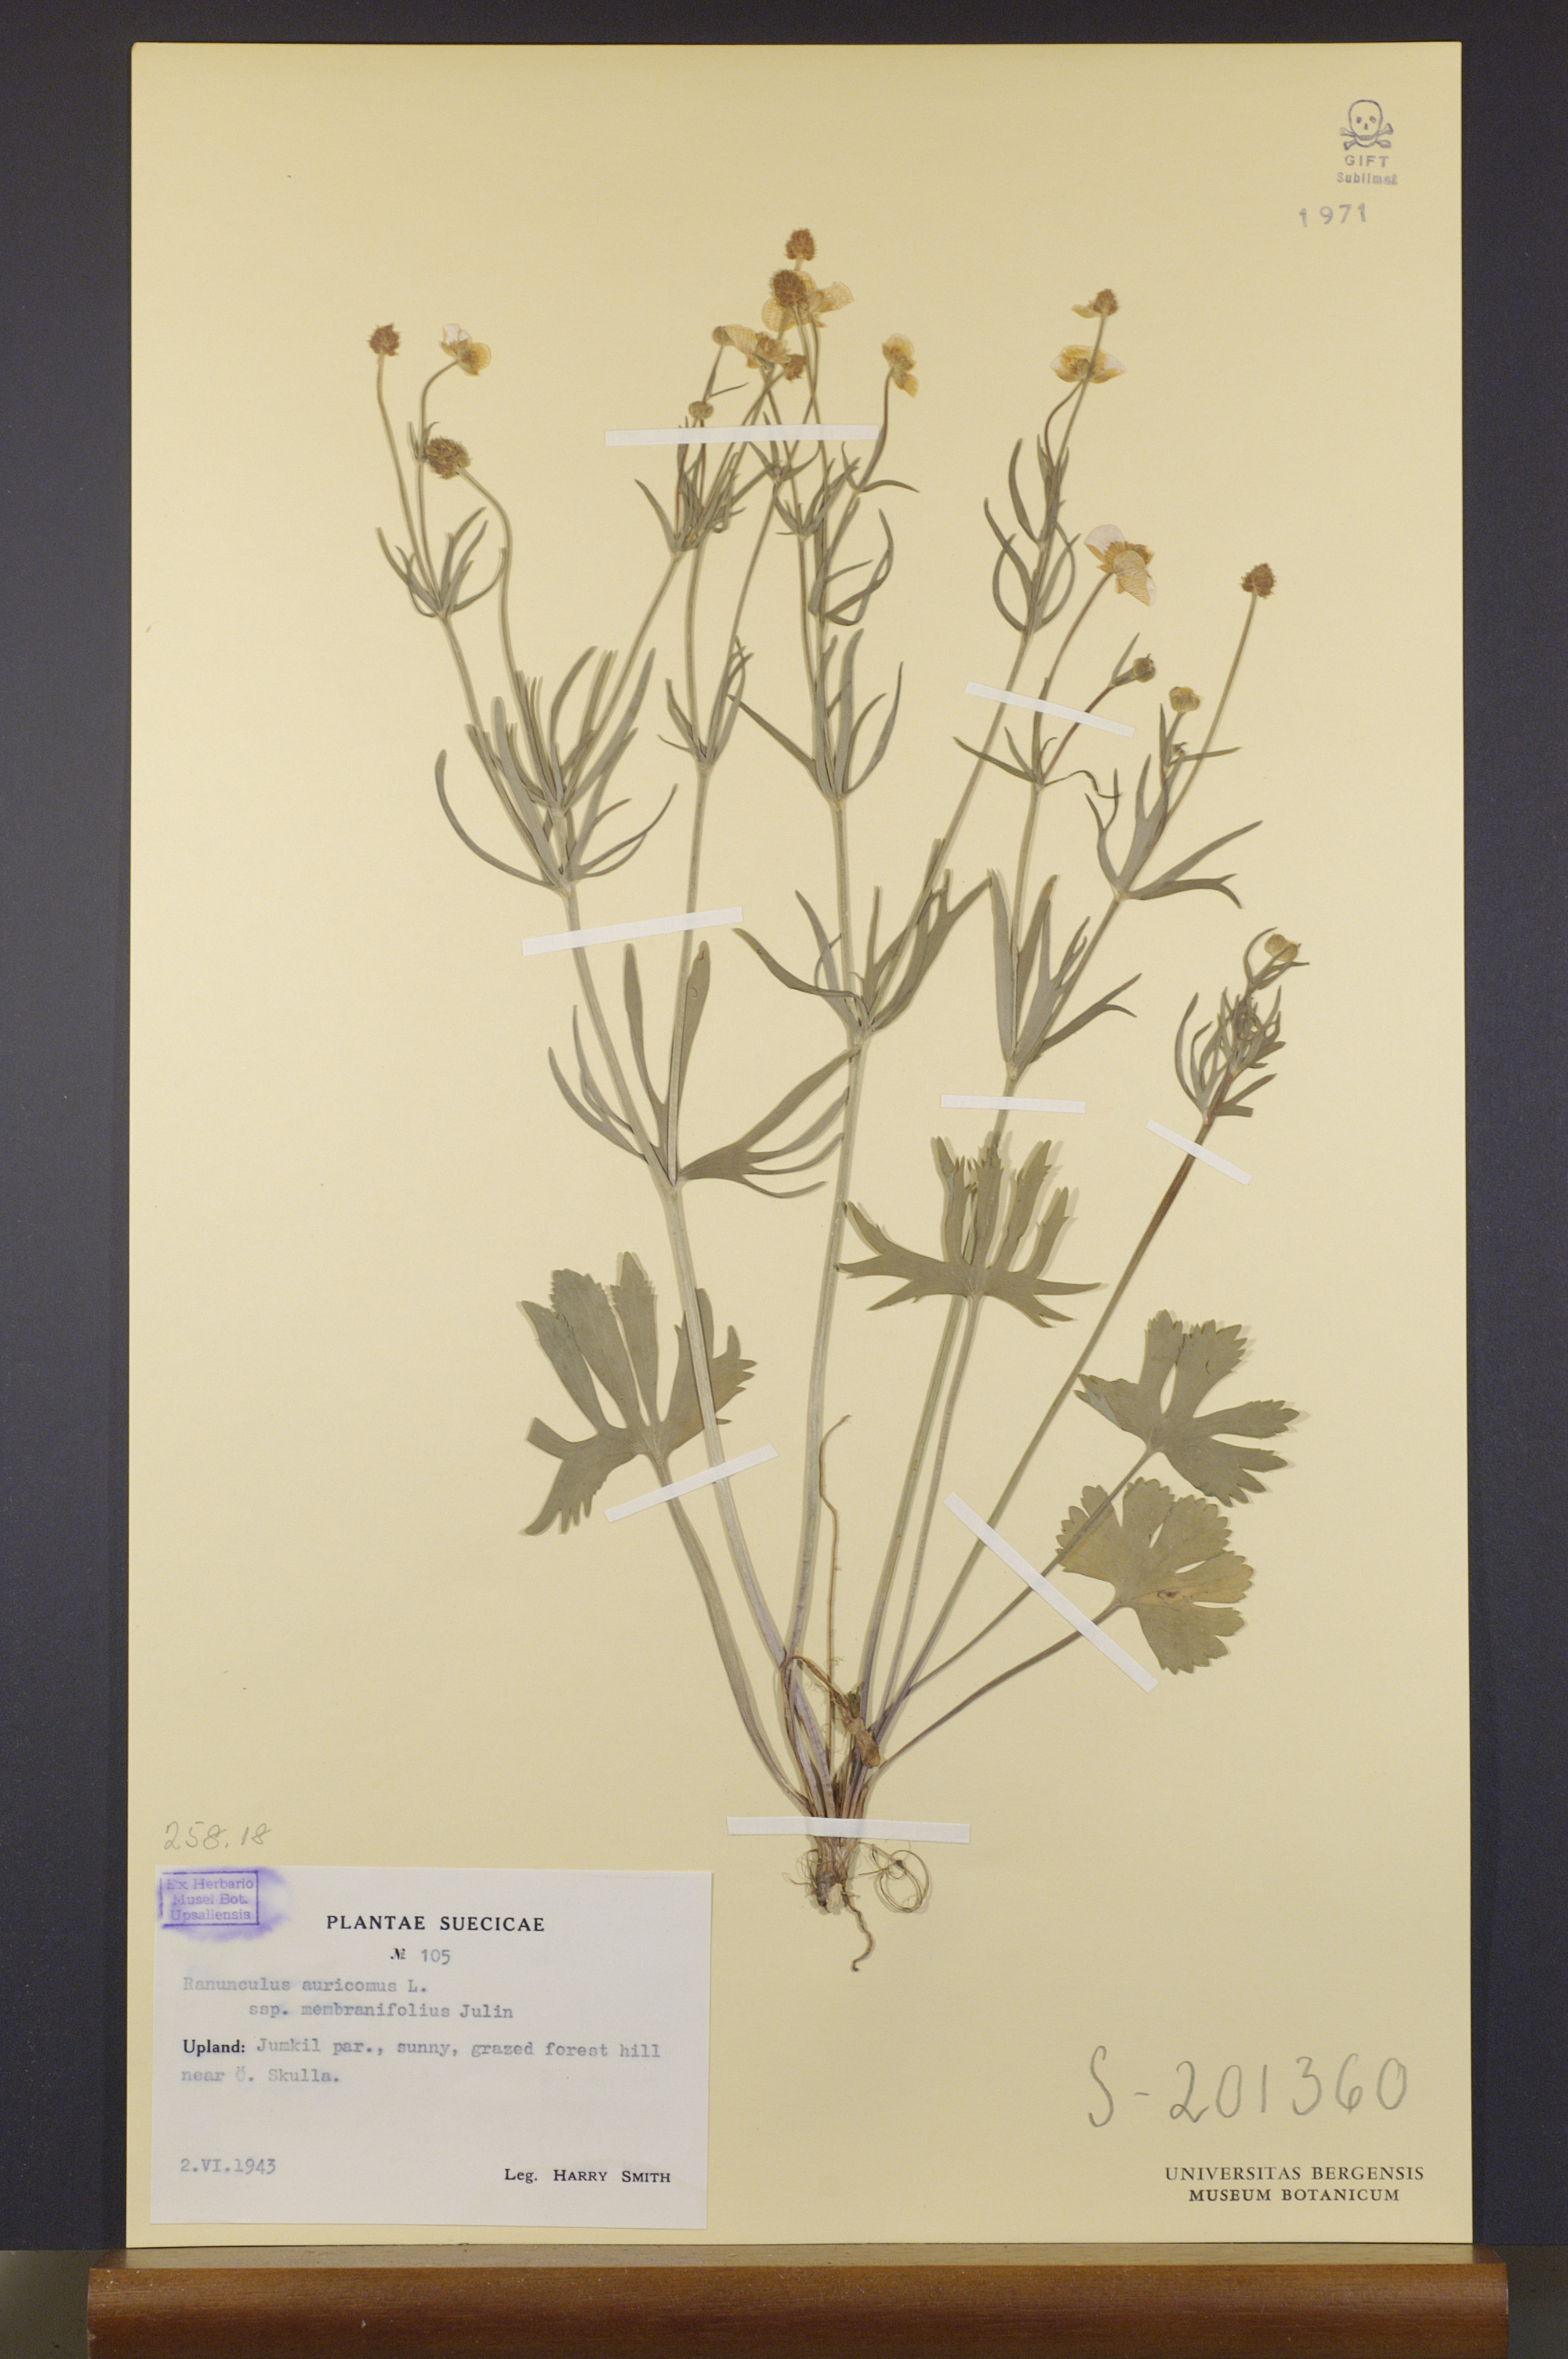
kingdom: Plantae
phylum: Tracheophyta
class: Magnoliopsida
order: Ranunculales
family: Ranunculaceae
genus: Ranunculus
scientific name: Ranunculus pergamentaceus
